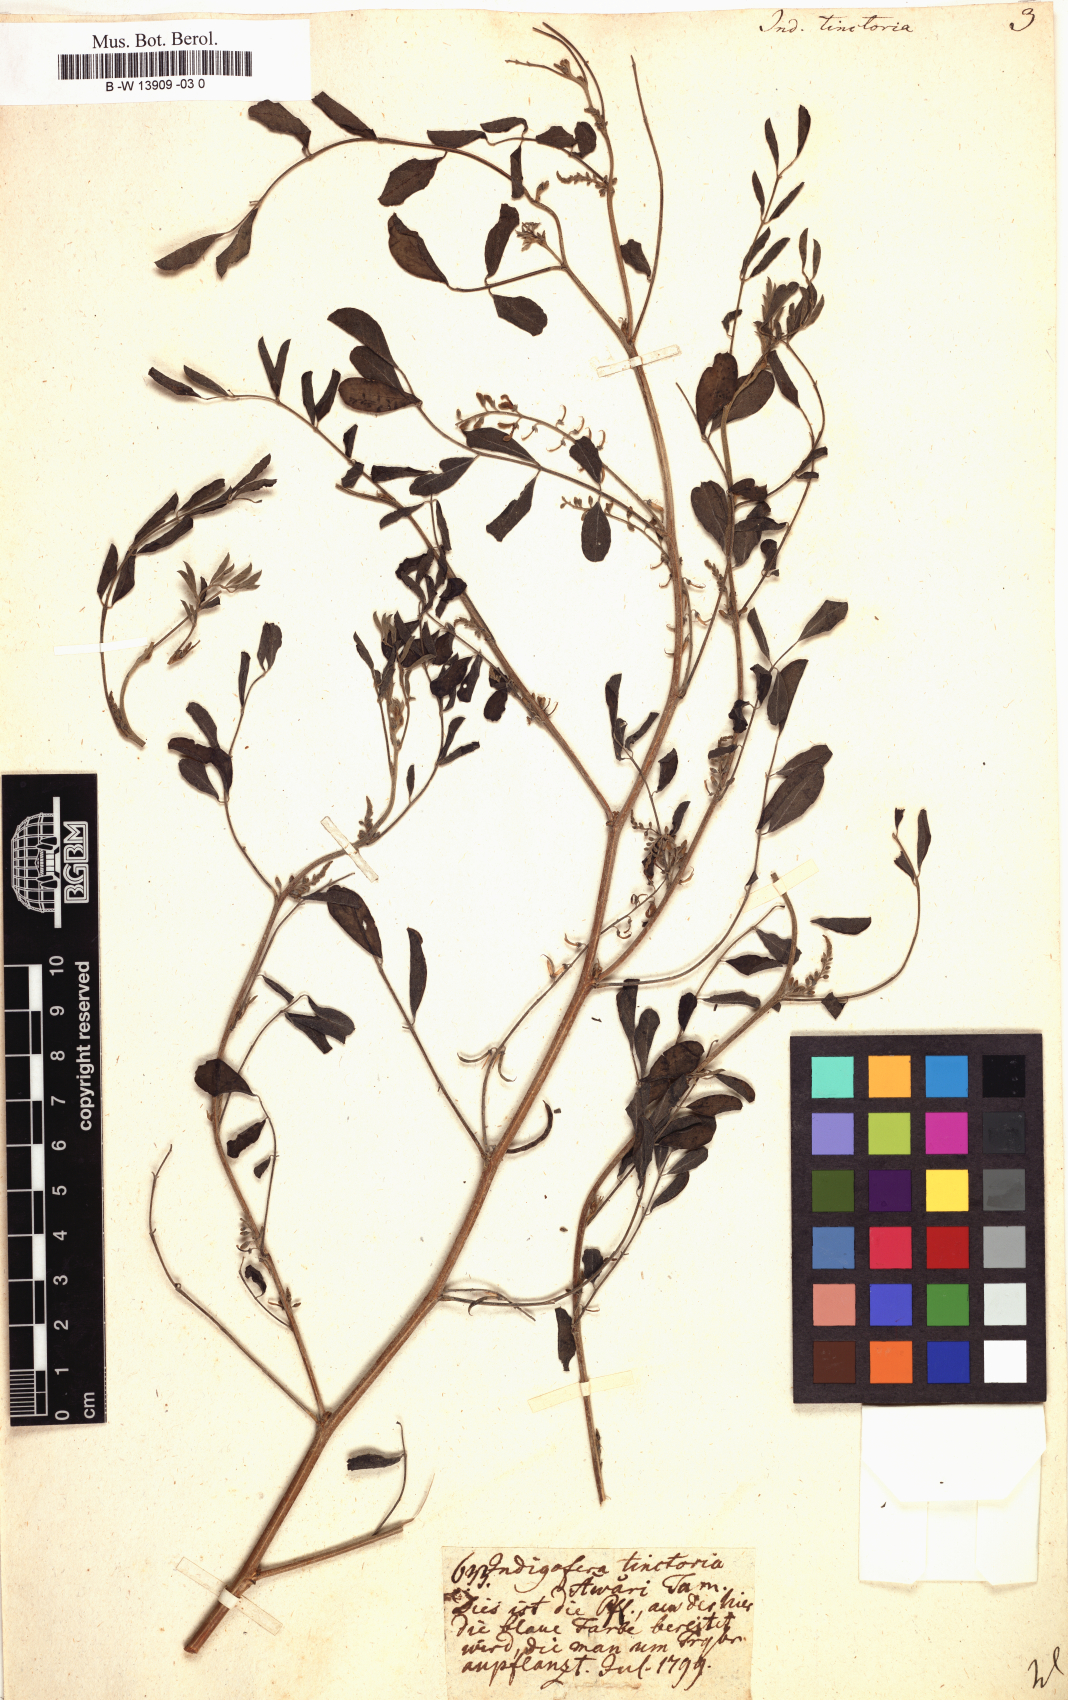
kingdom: Plantae
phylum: Tracheophyta
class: Magnoliopsida
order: Fabales
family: Fabaceae
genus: Indigofera
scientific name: Indigofera tinctoria
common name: True indigo
